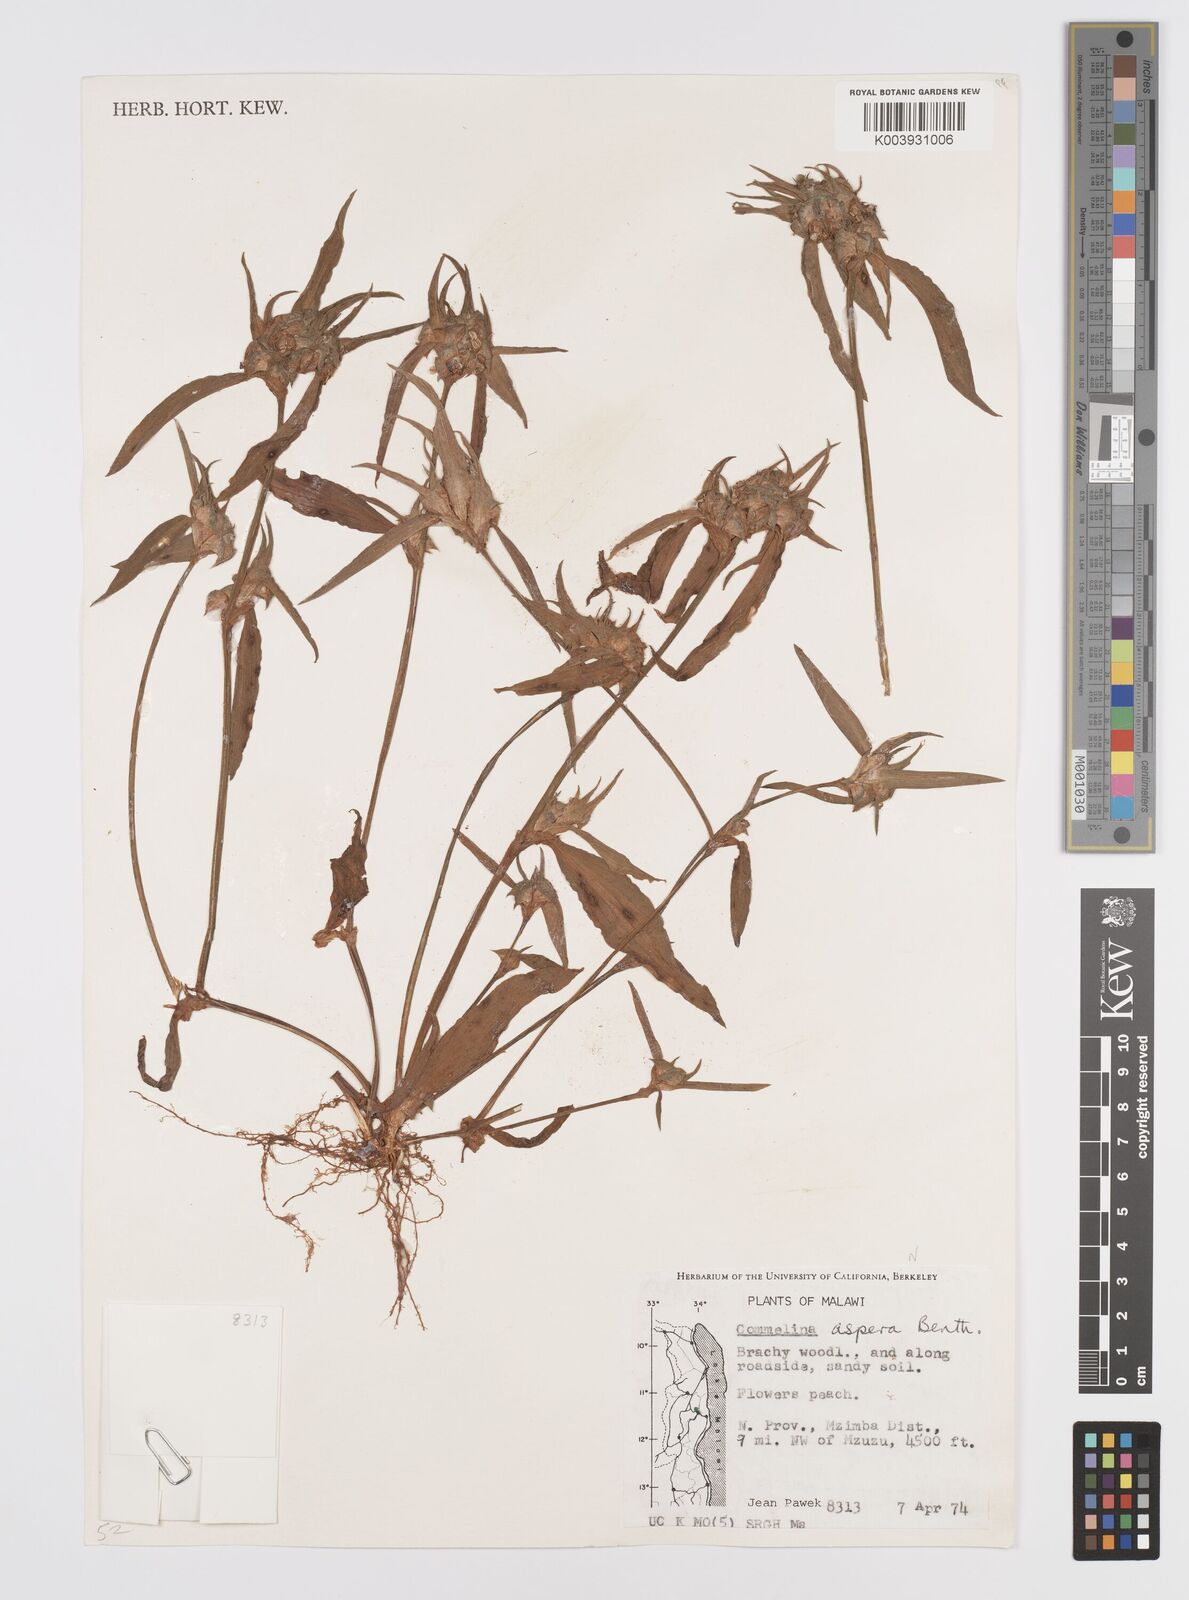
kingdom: Plantae
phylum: Tracheophyta
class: Liliopsida
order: Commelinales
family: Commelinaceae
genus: Commelina
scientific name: Commelina aspera
